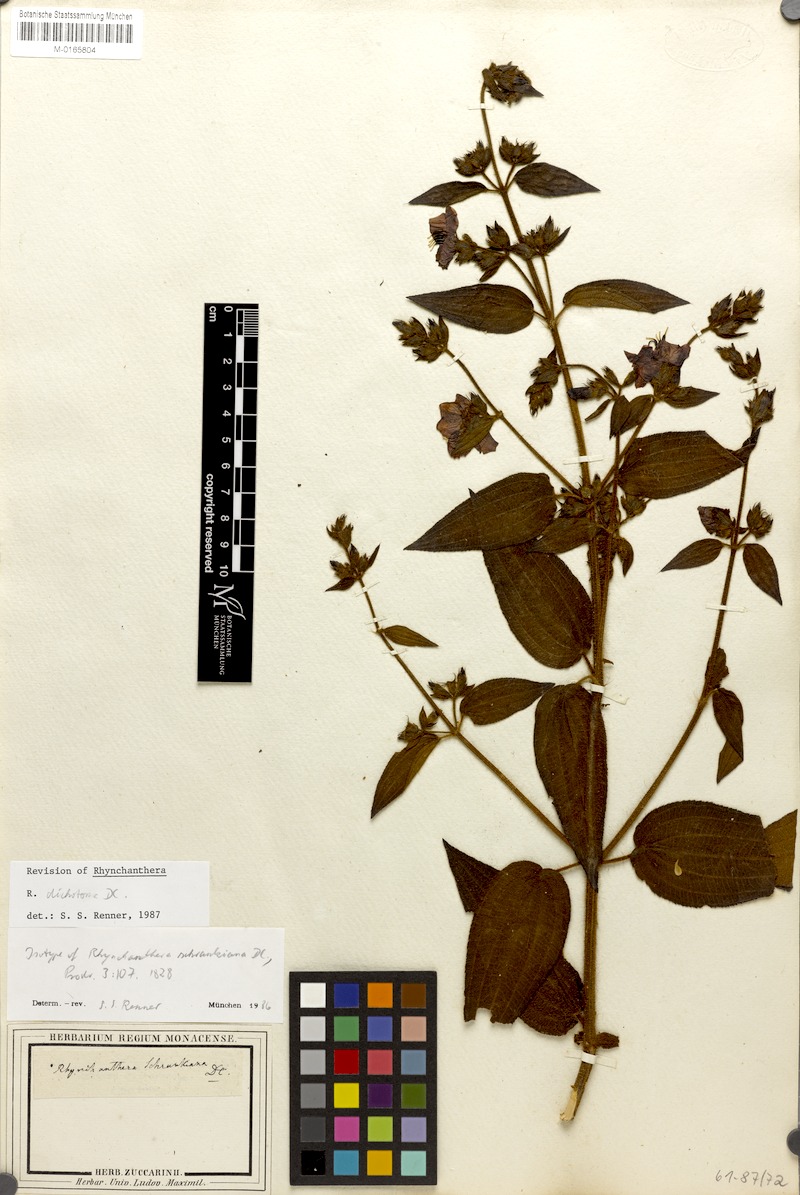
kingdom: Plantae
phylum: Tracheophyta
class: Magnoliopsida
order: Myrtales
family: Melastomataceae
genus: Rhynchanthera
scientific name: Rhynchanthera dichotoma
